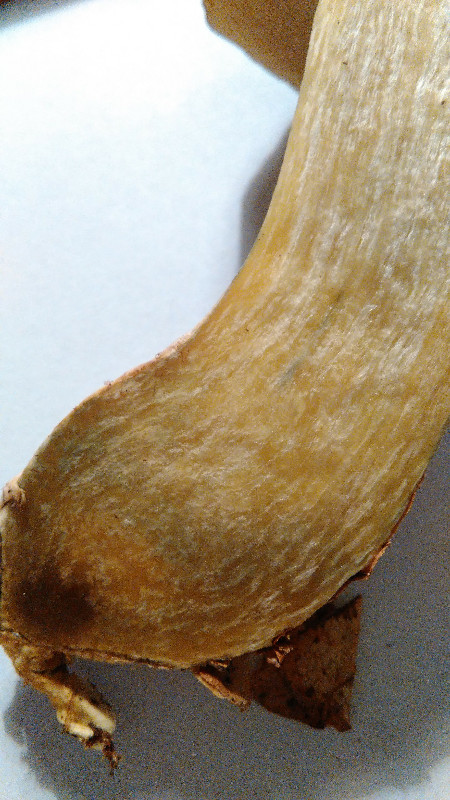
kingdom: Fungi
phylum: Basidiomycota
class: Agaricomycetes
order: Boletales
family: Boletaceae
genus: Xerocomellus
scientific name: Xerocomellus pruinatus
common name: dugget rørhat
